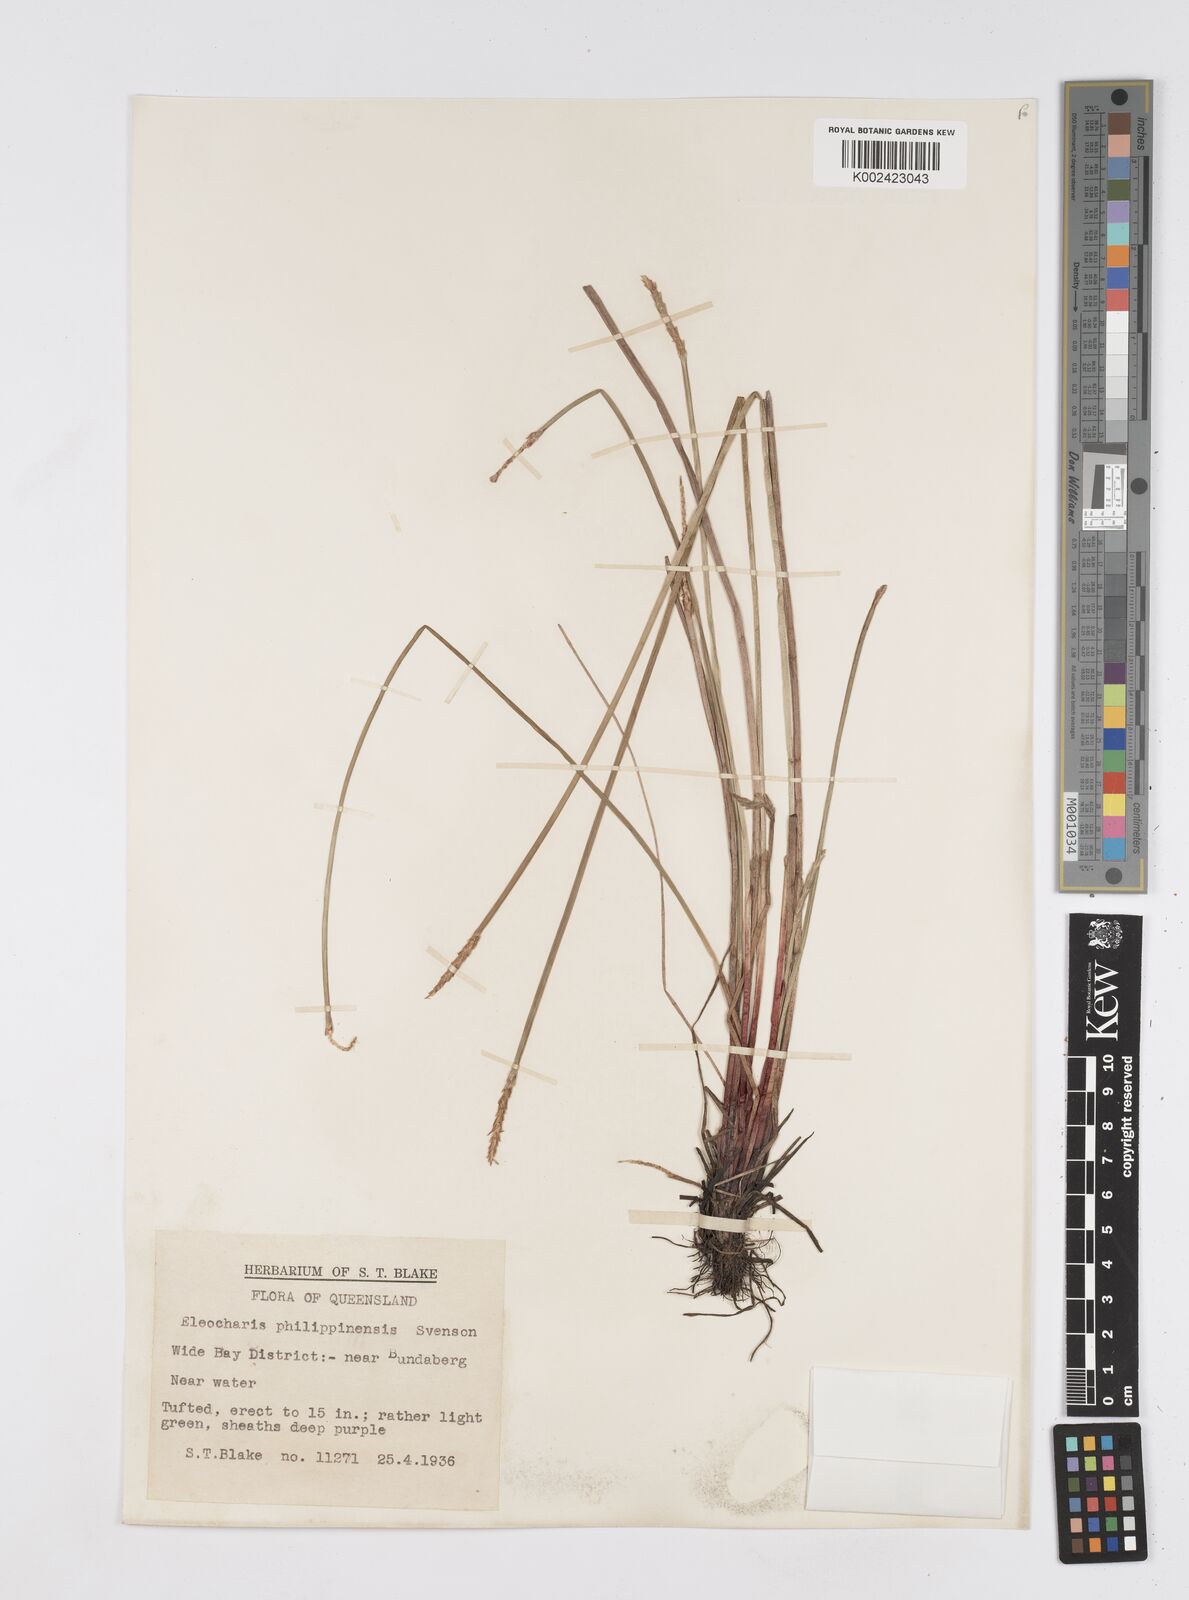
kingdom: Plantae
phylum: Tracheophyta
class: Liliopsida
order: Poales
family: Cyperaceae
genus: Eleocharis
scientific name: Eleocharis nuda
